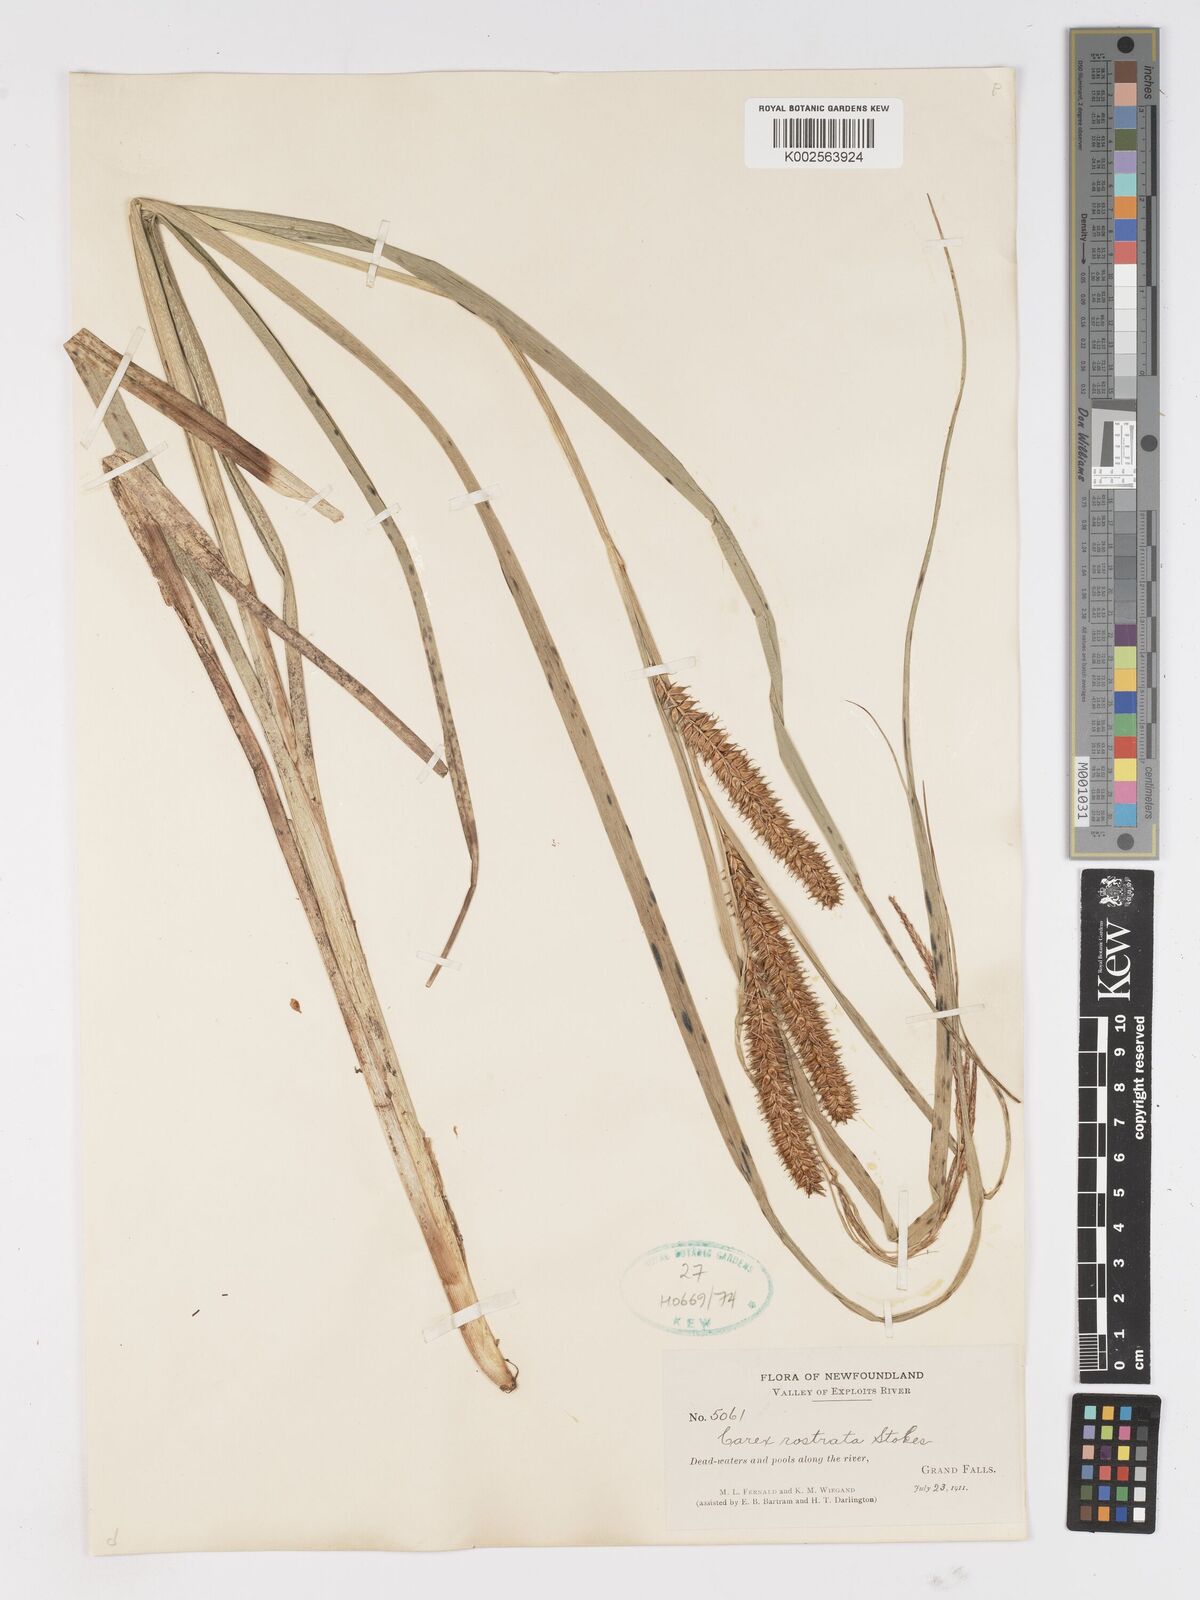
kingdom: Plantae
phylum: Tracheophyta
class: Liliopsida
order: Poales
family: Cyperaceae
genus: Carex
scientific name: Carex rostrata
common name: Bottle sedge
